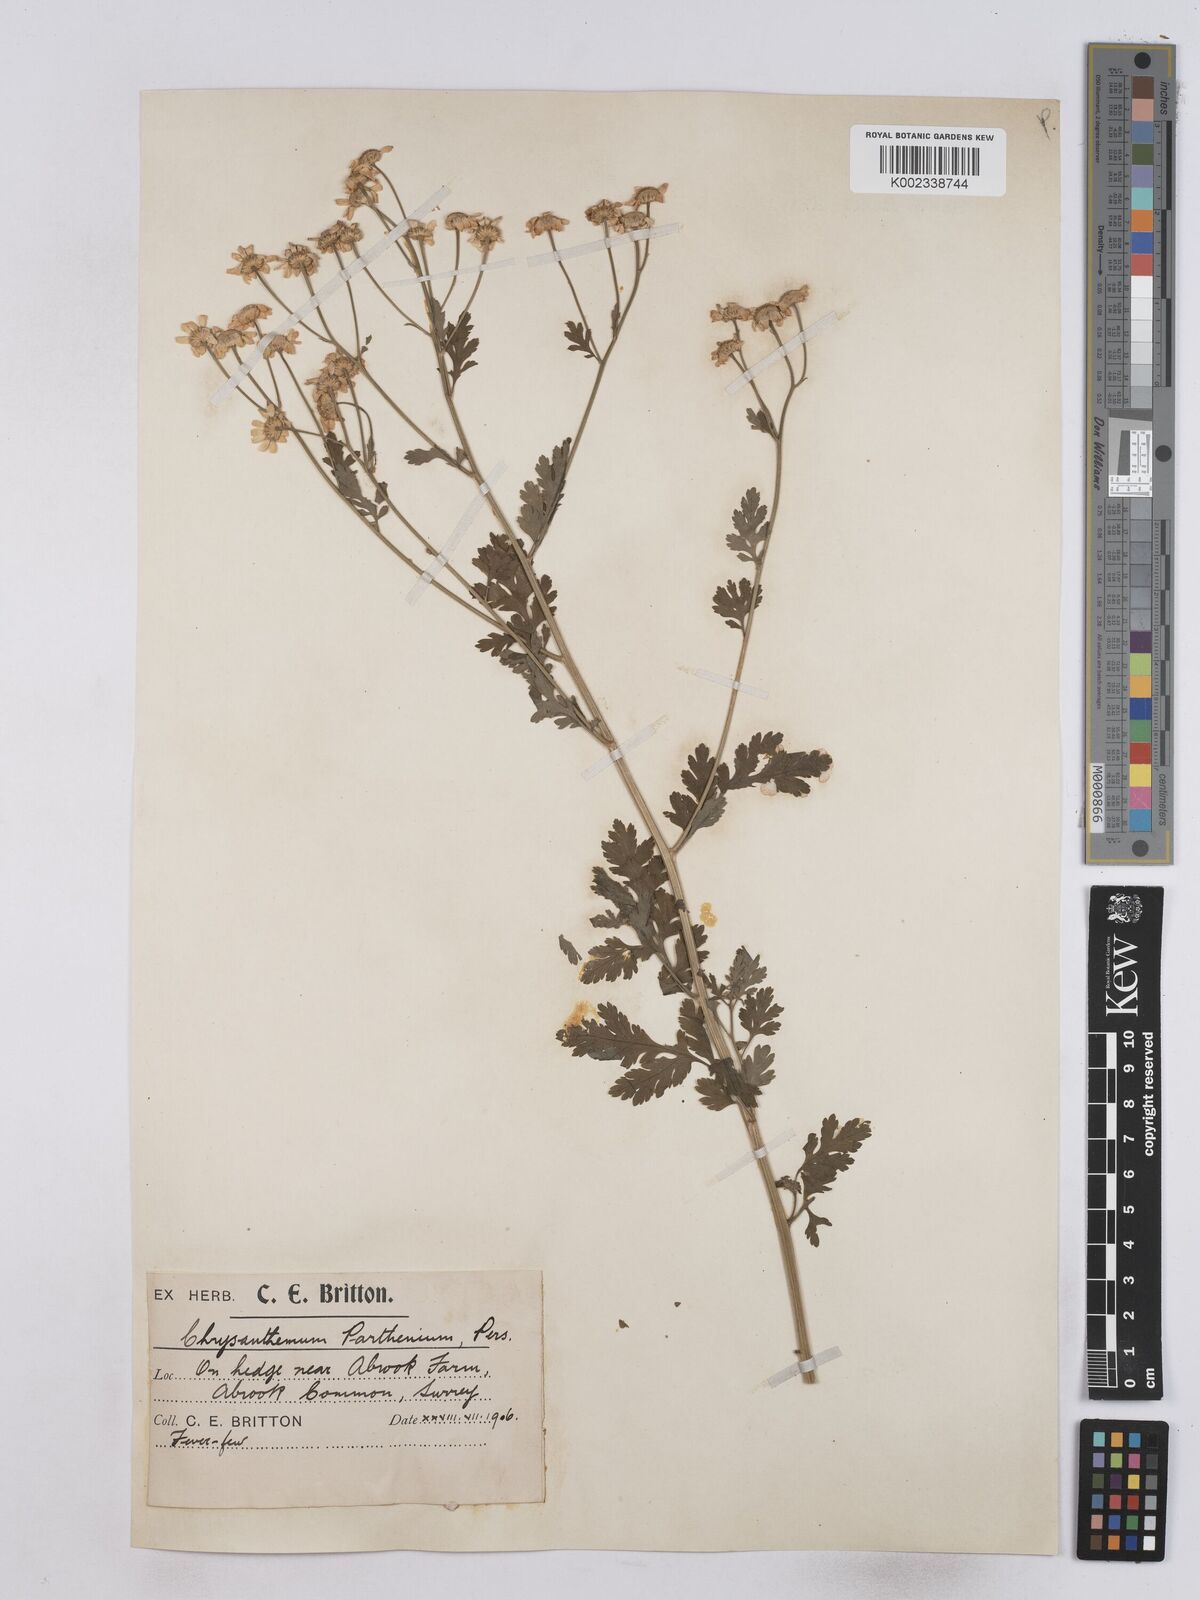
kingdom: Plantae
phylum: Tracheophyta
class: Magnoliopsida
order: Asterales
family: Asteraceae
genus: Tanacetum
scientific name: Tanacetum parthenium
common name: Feverfew
